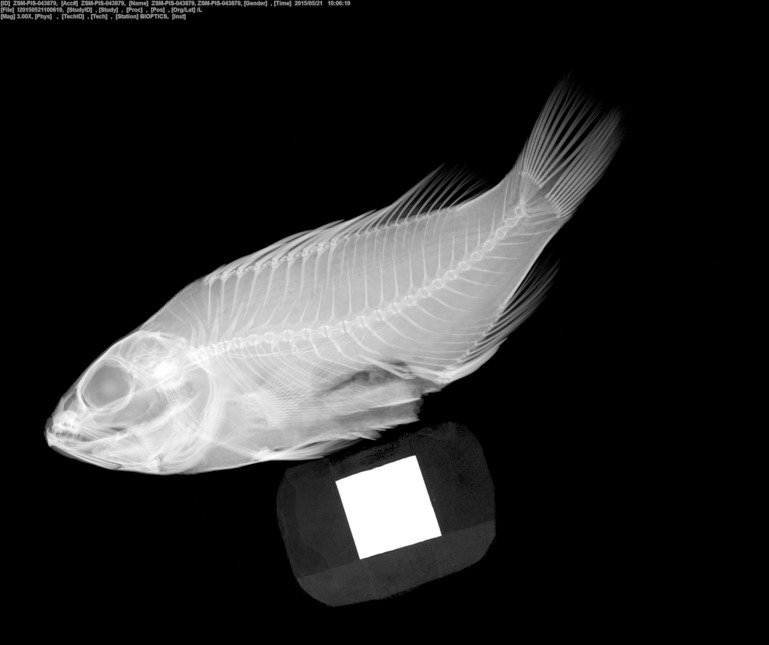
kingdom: Animalia
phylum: Chordata
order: Perciformes
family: Serranidae
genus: Serranus
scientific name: Serranus pulcher
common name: São tomé comber
